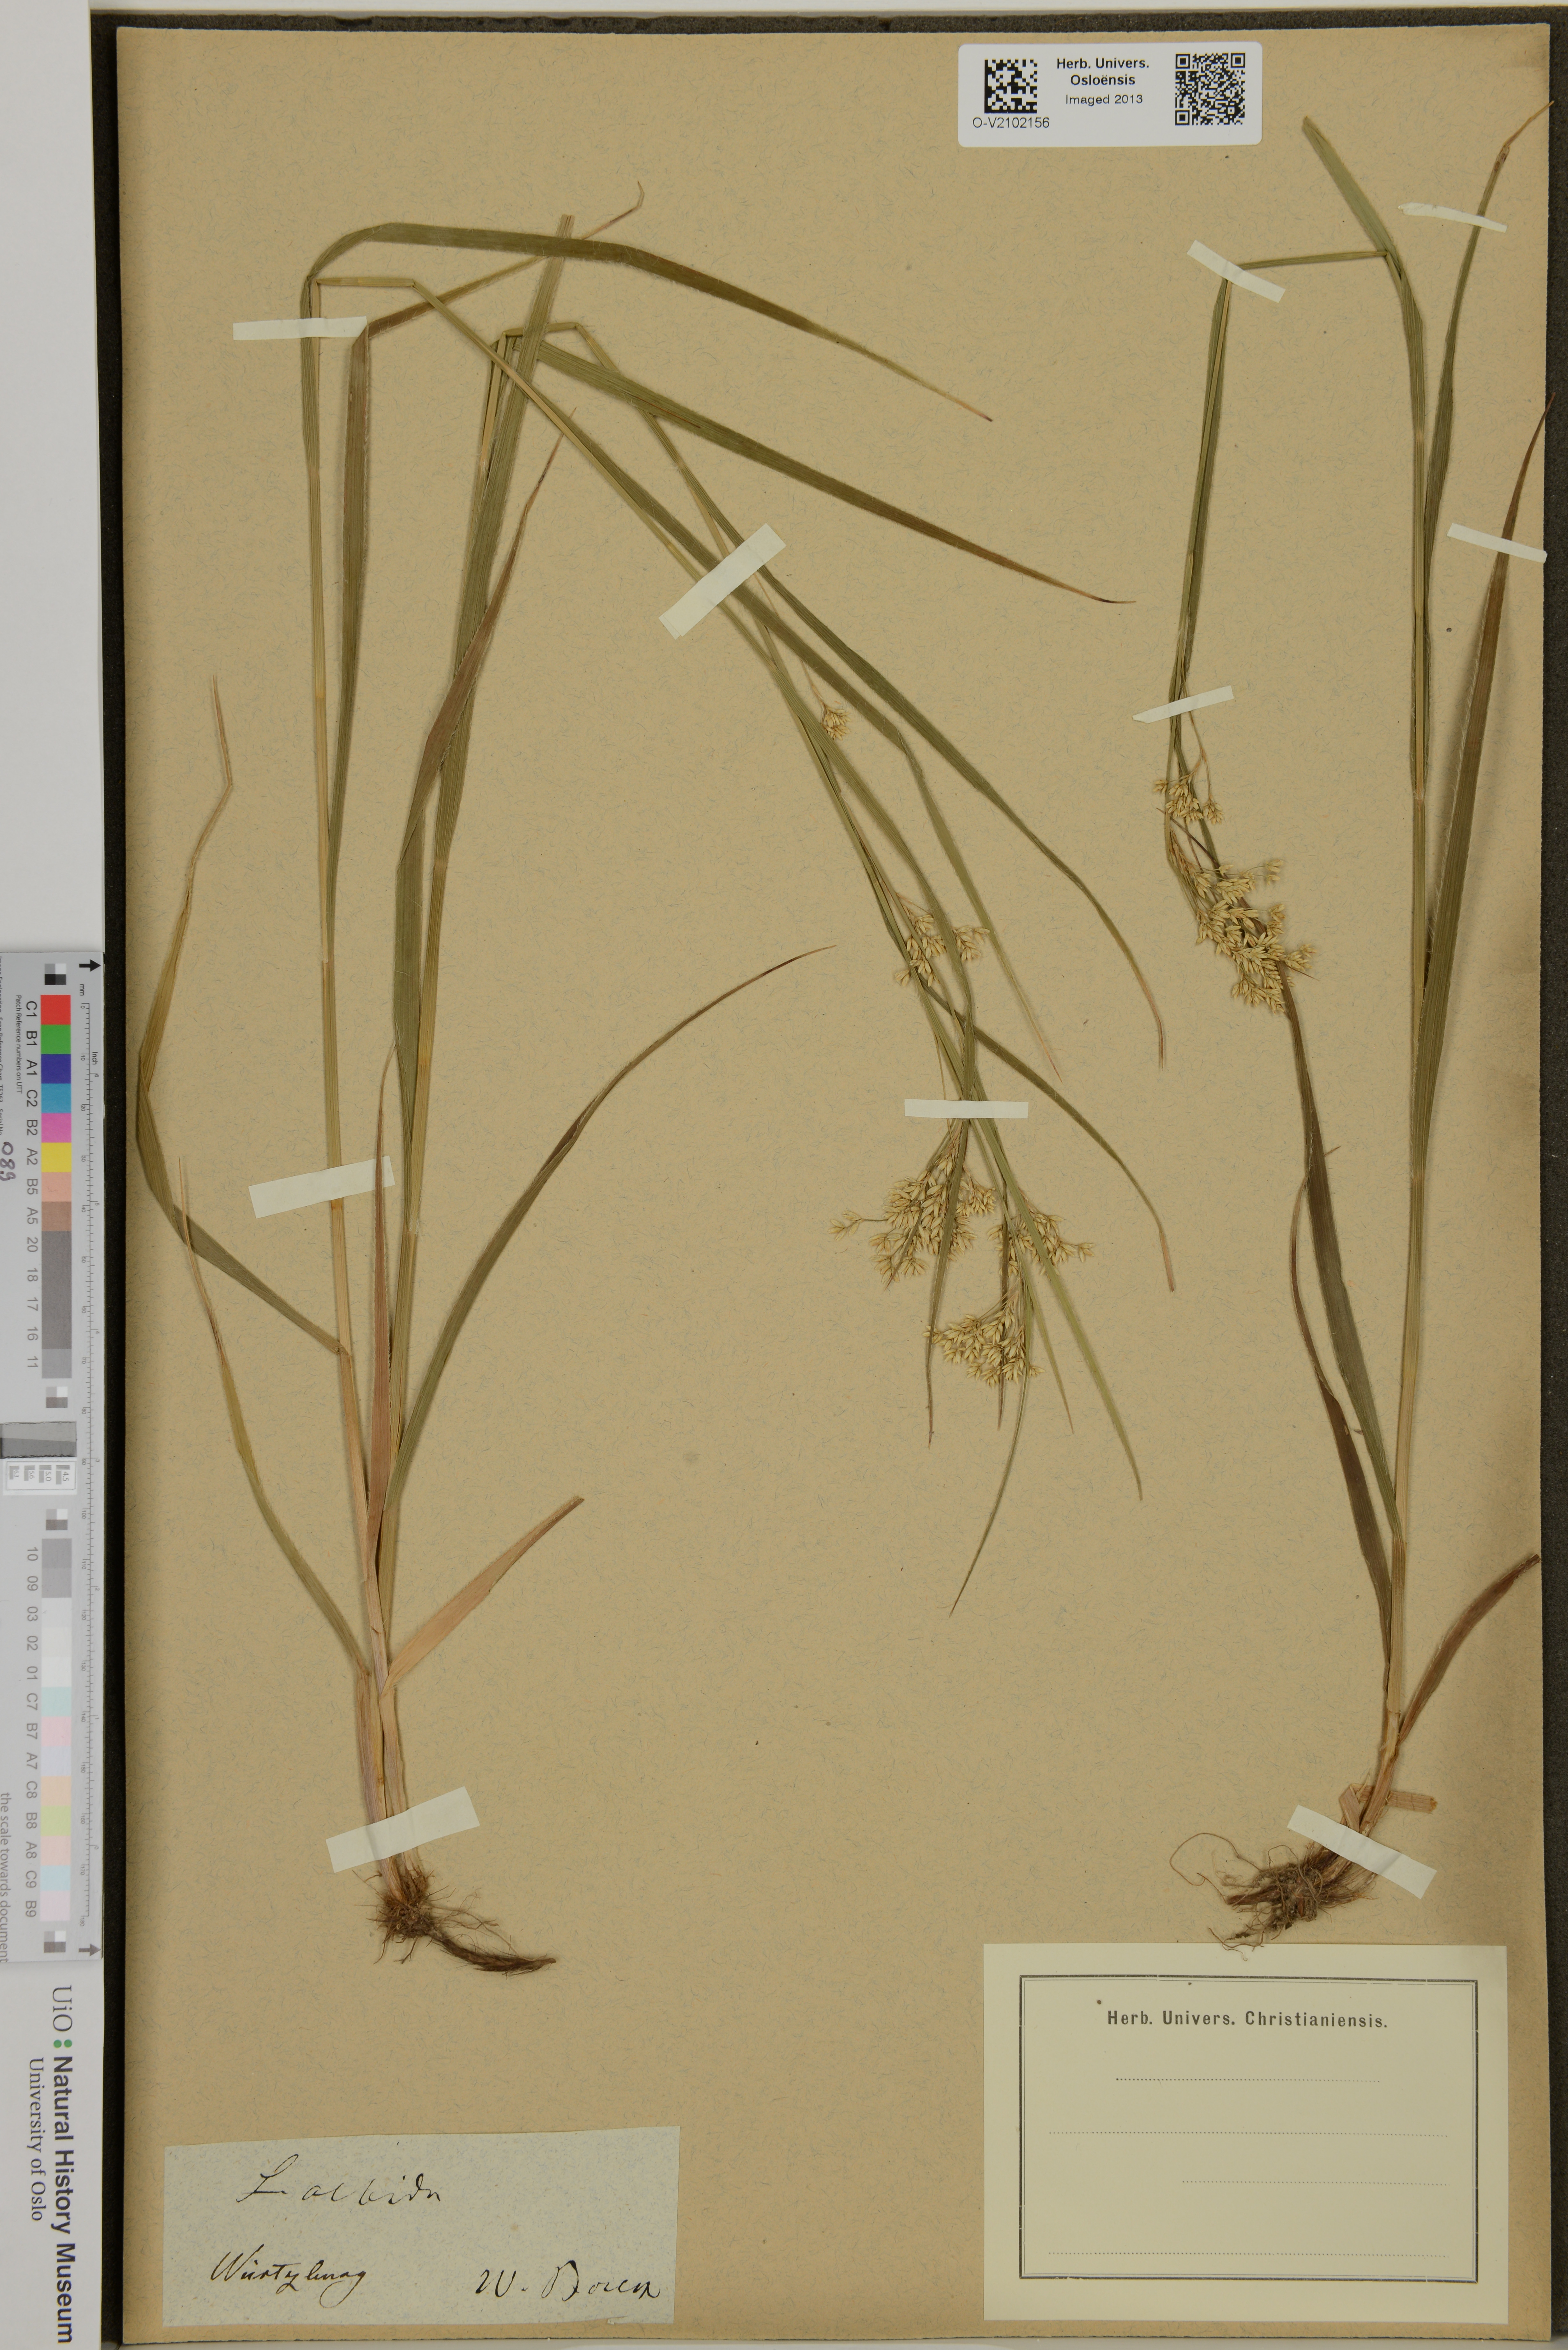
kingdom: Plantae
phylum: Tracheophyta
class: Liliopsida
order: Poales
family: Juncaceae
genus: Luzula
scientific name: Luzula luzuloides
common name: White wood-rush
